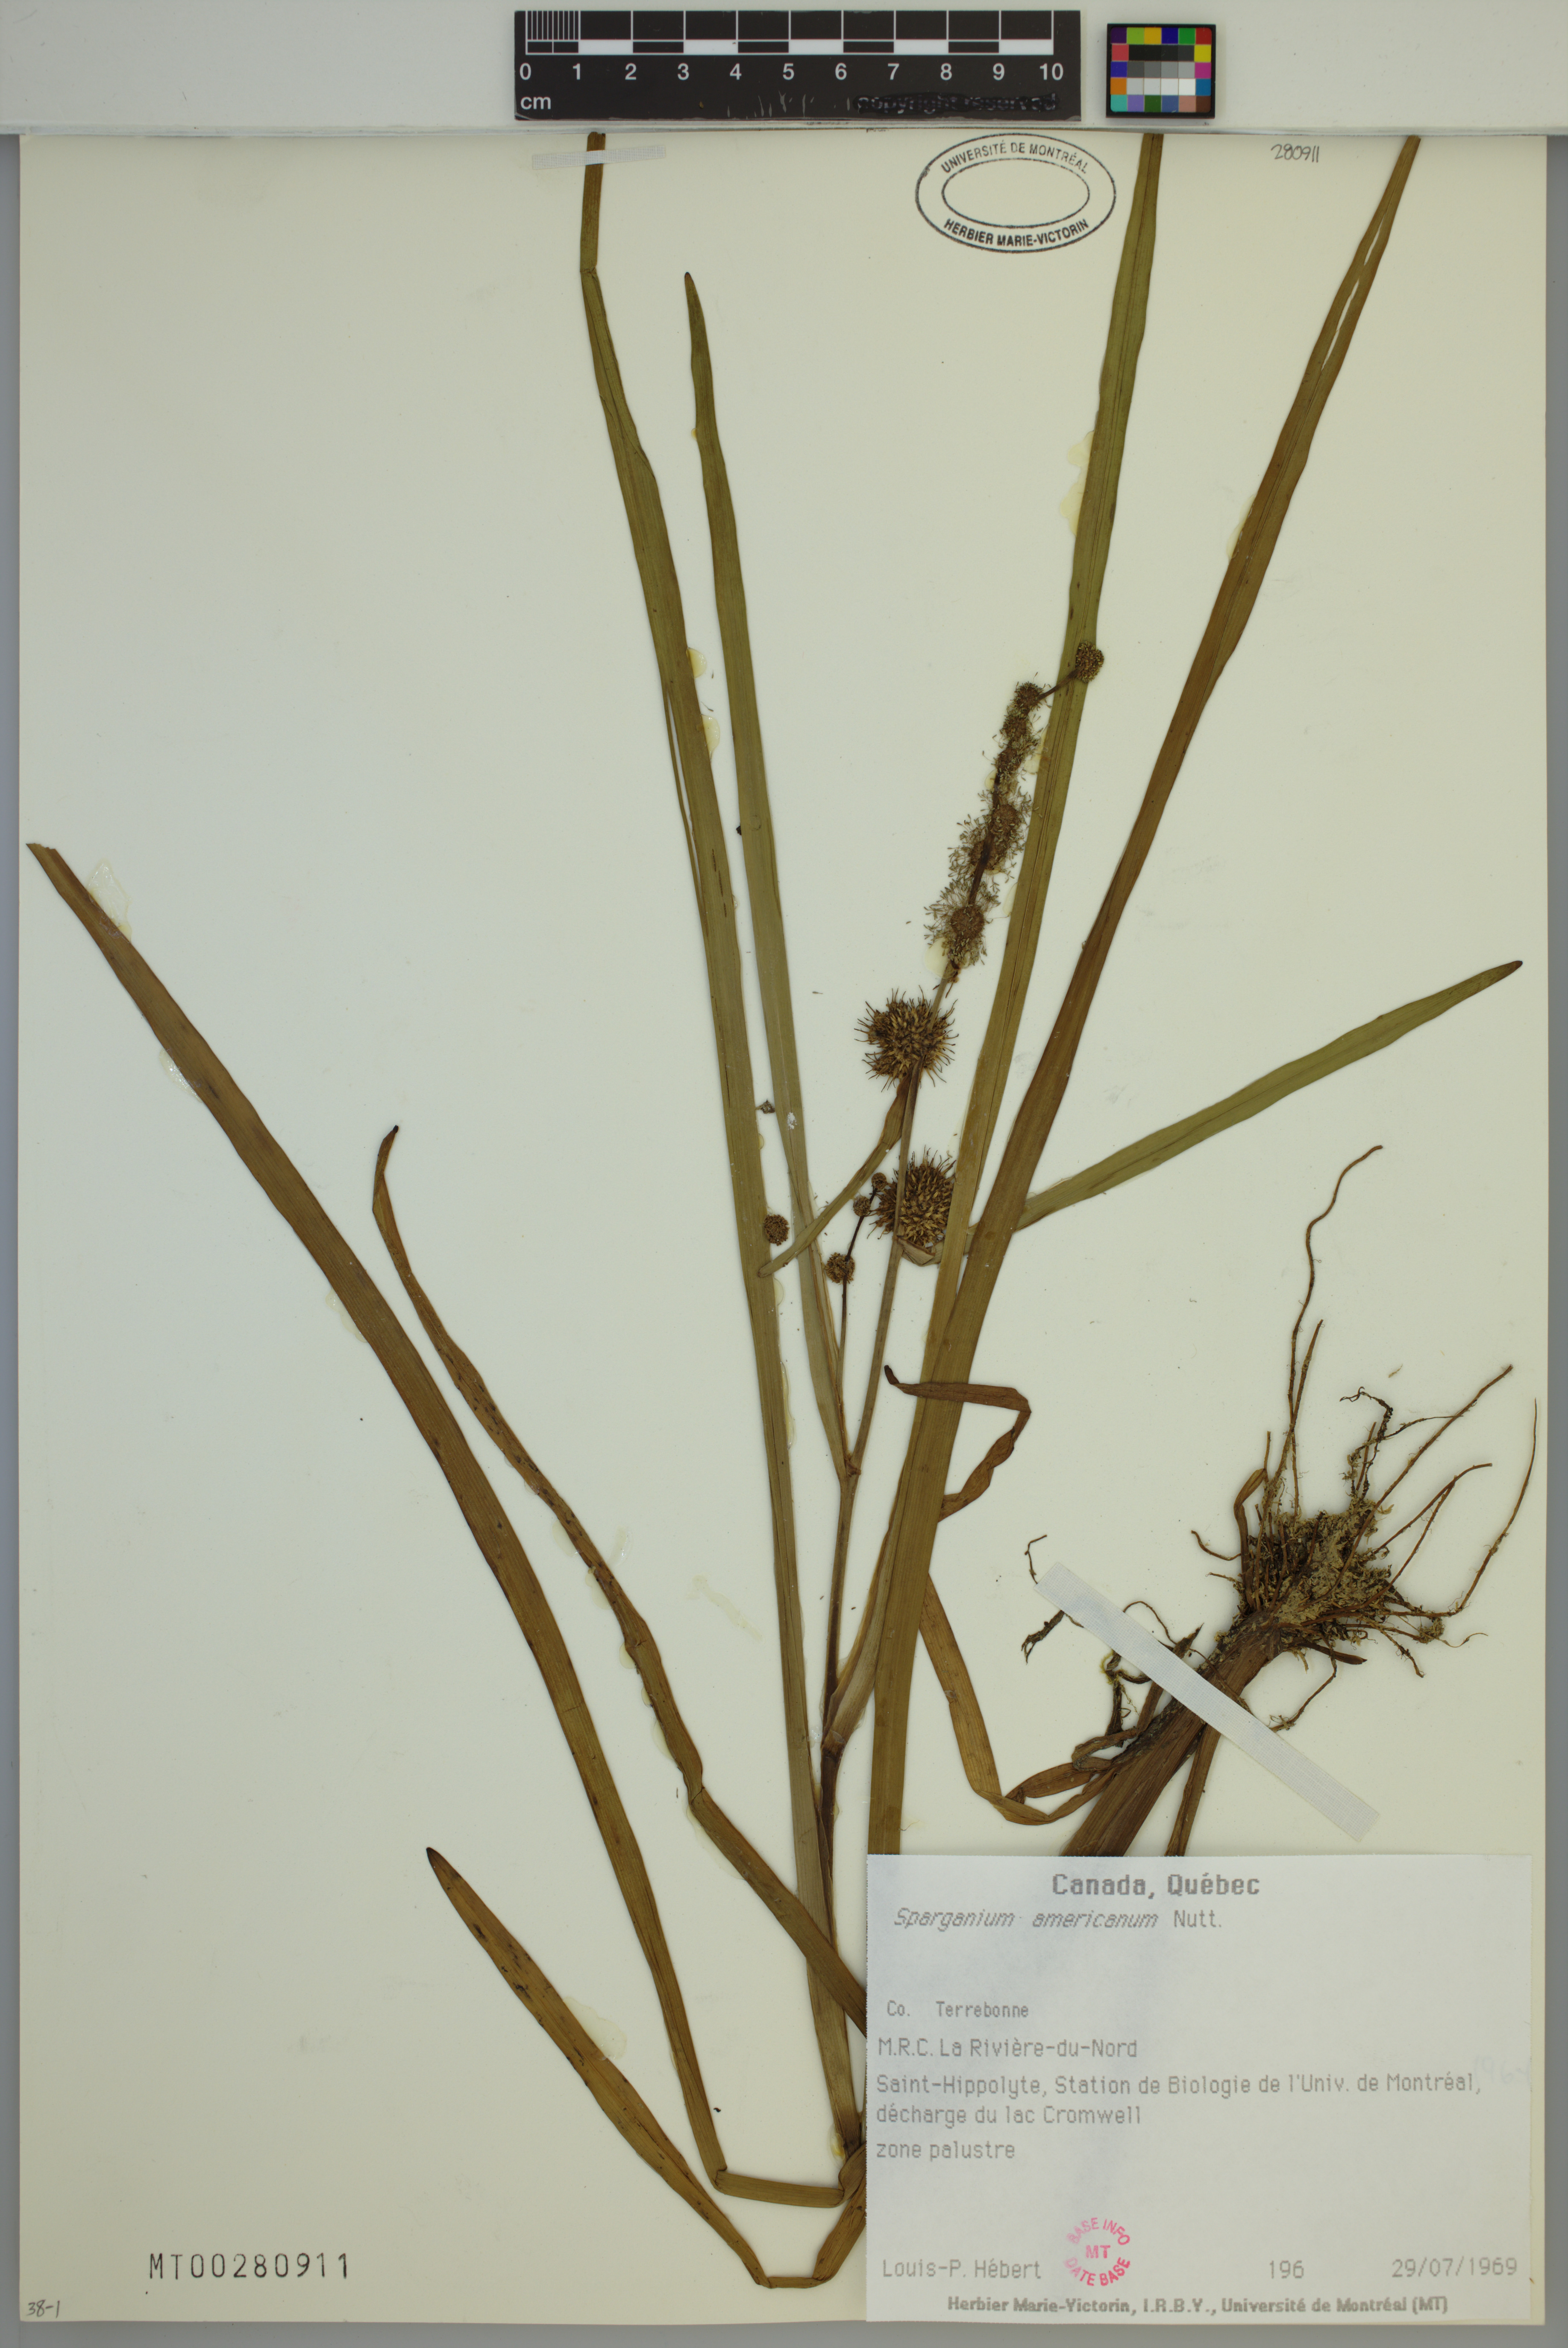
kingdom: Plantae
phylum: Tracheophyta
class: Liliopsida
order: Poales
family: Typhaceae
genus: Sparganium
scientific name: Sparganium americanum
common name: American burreed
